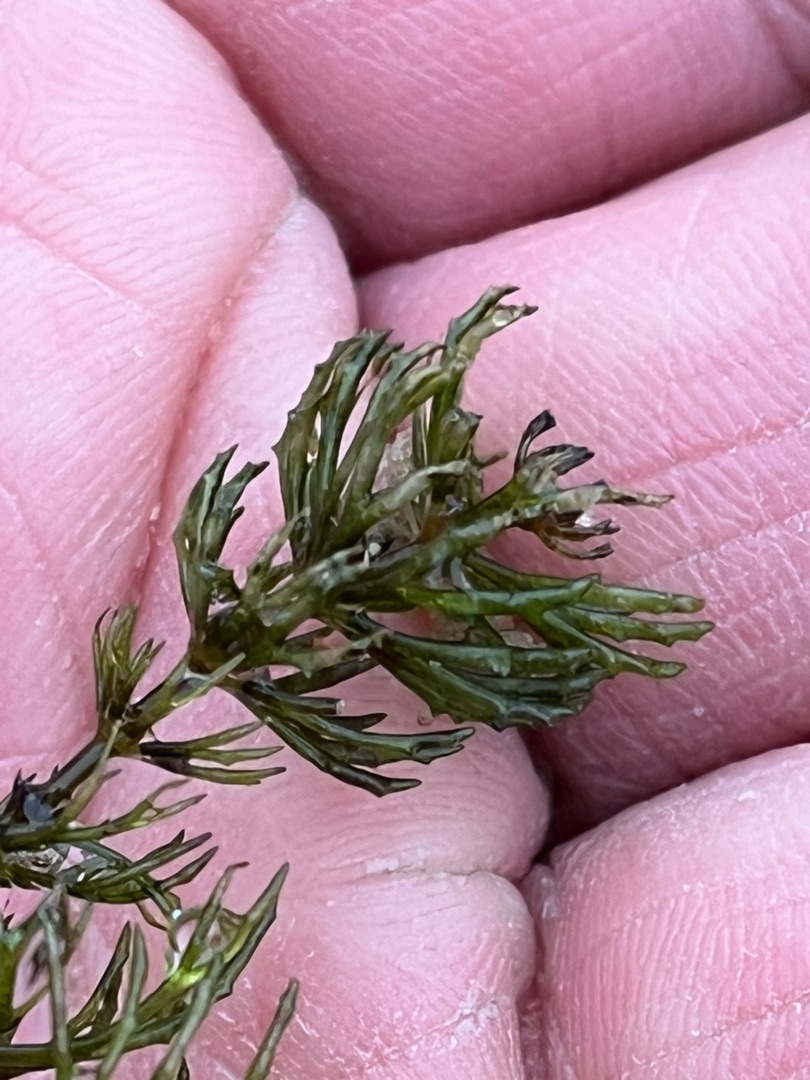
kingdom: Plantae
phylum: Tracheophyta
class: Magnoliopsida
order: Ceratophyllales
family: Ceratophyllaceae
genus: Ceratophyllum
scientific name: Ceratophyllum demersum
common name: Tornfrøet hornblad
